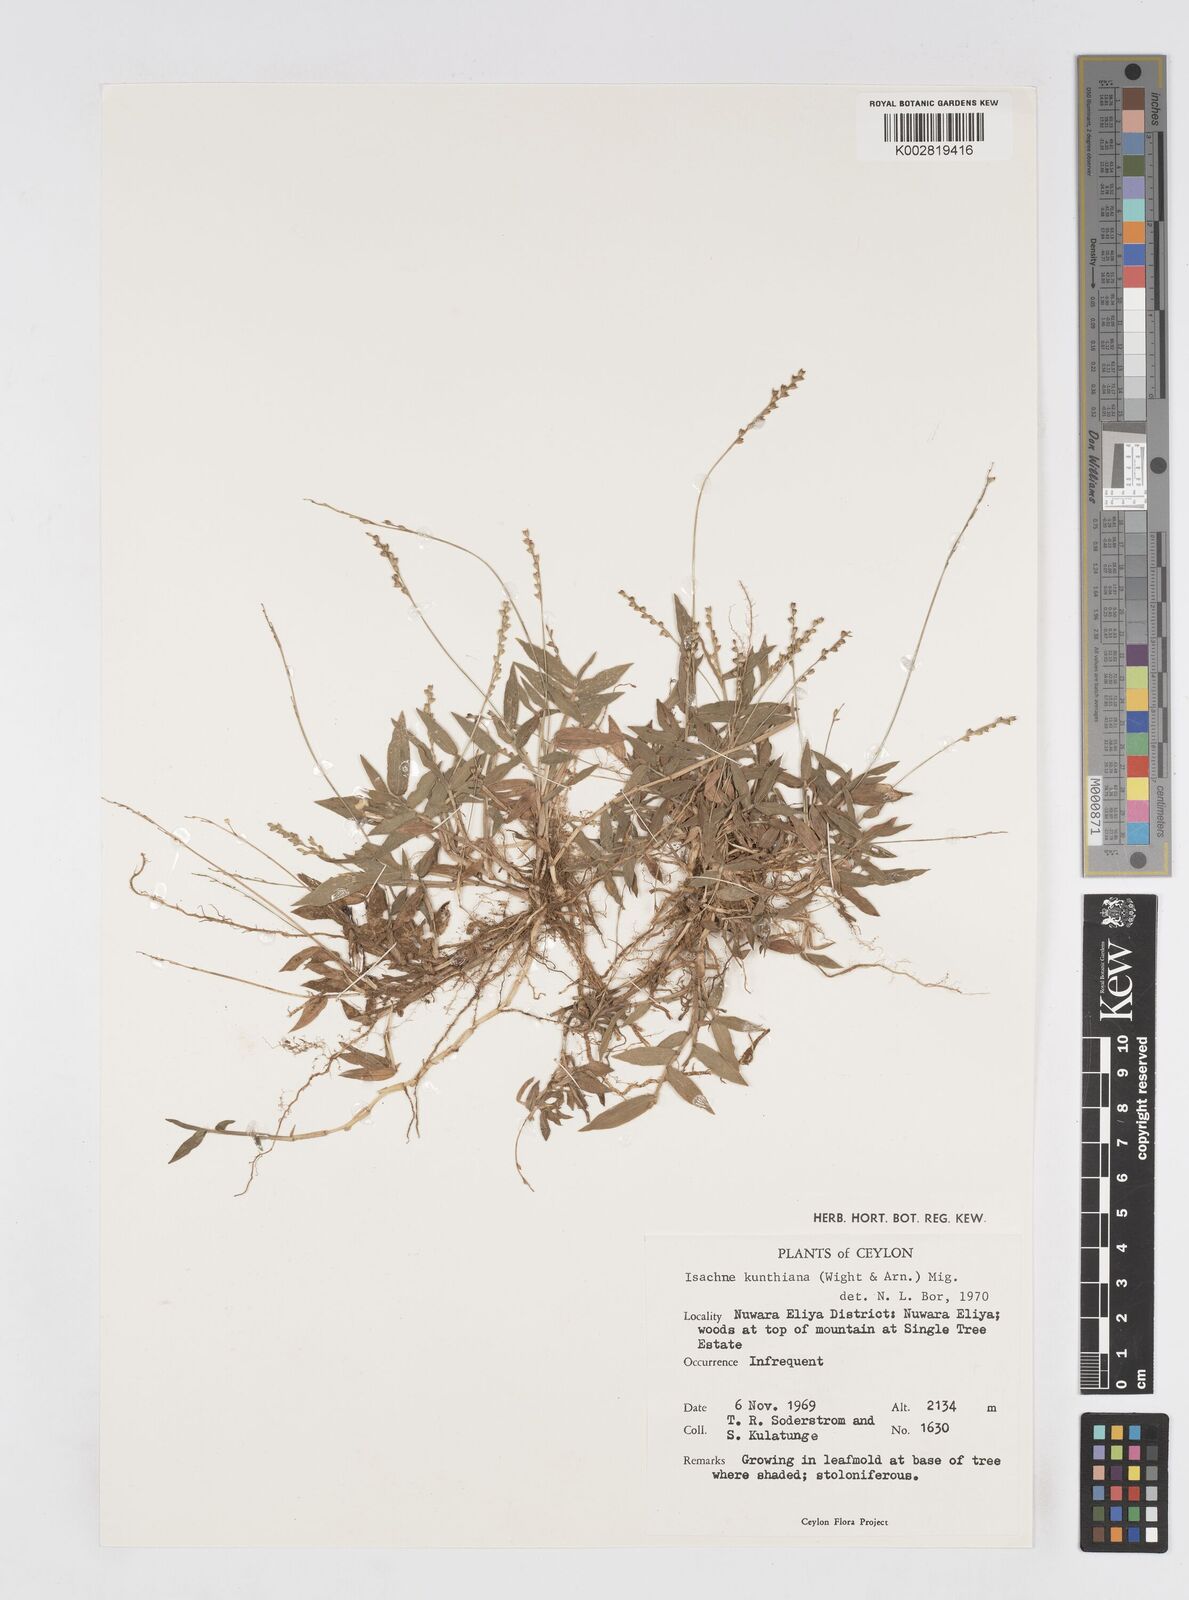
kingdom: Plantae
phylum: Tracheophyta
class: Liliopsida
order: Poales
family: Poaceae
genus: Isachne
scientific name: Isachne kunthiana
